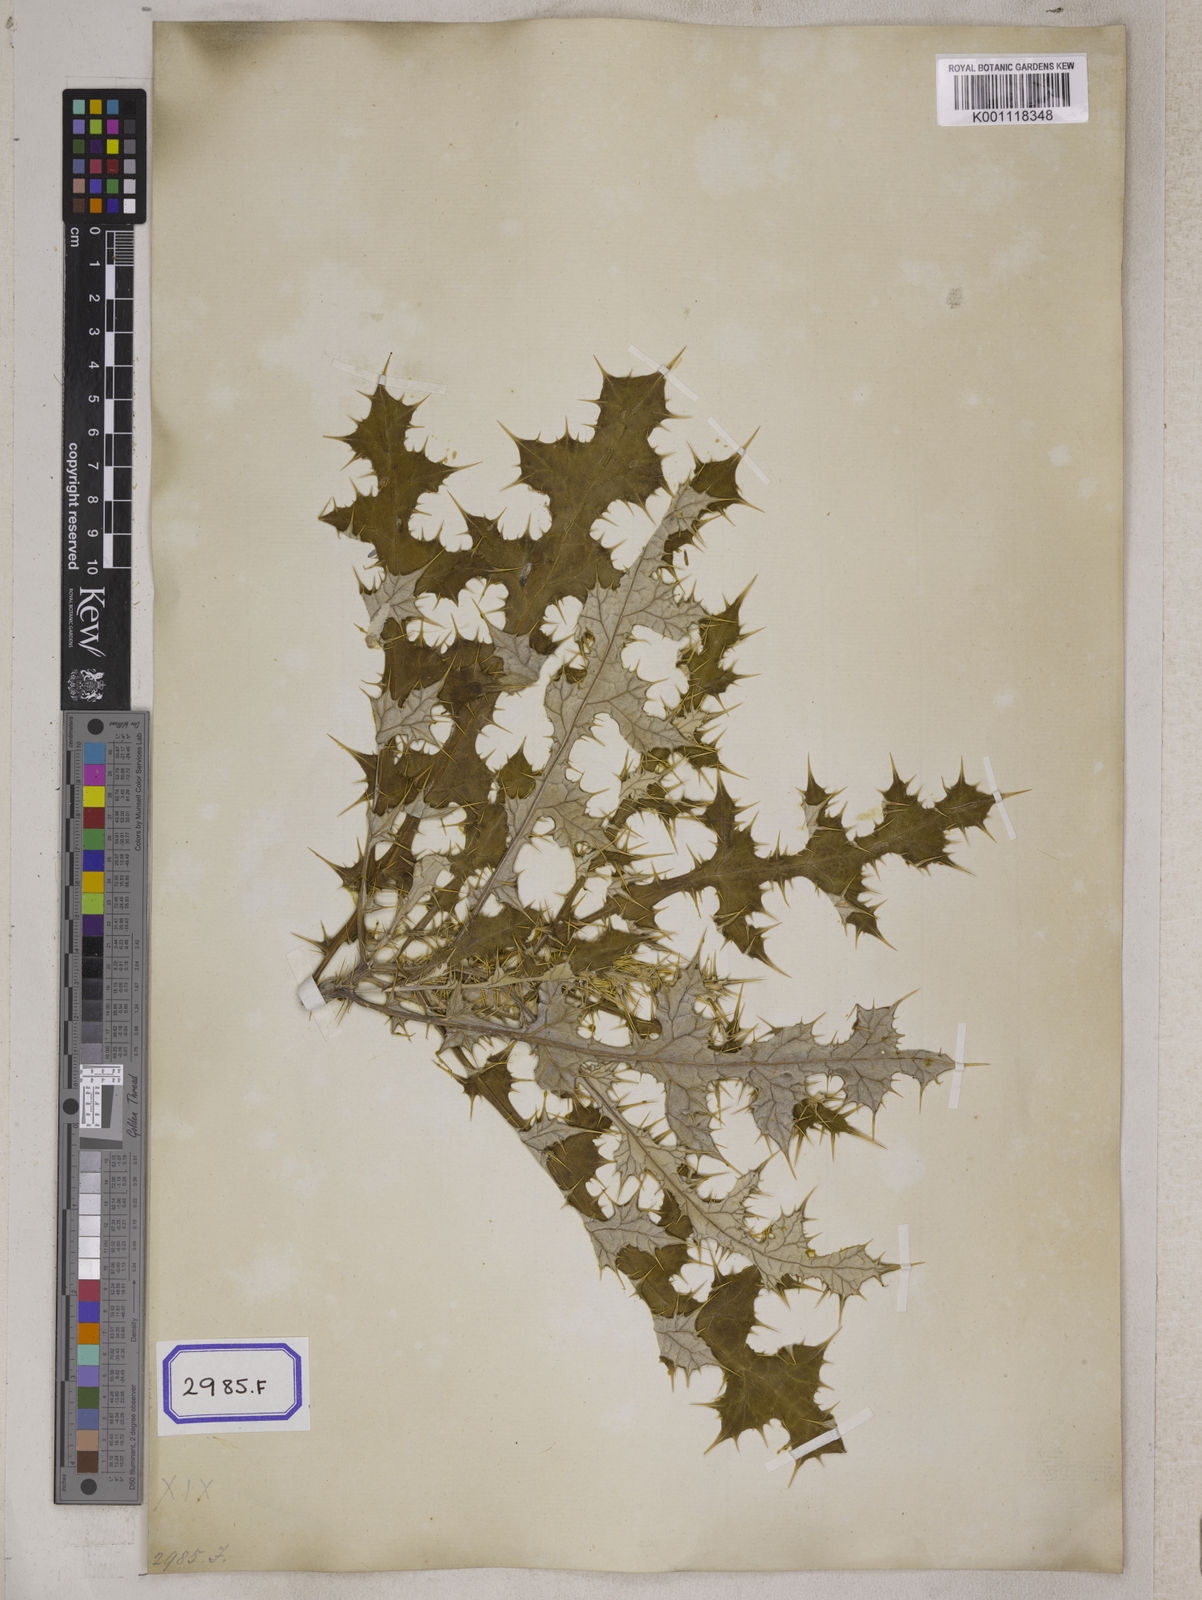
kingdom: Plantae
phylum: Tracheophyta
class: Magnoliopsida
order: Asterales
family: Asteraceae
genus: Echinops
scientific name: Echinops echinatus
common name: Indian globe thistle
